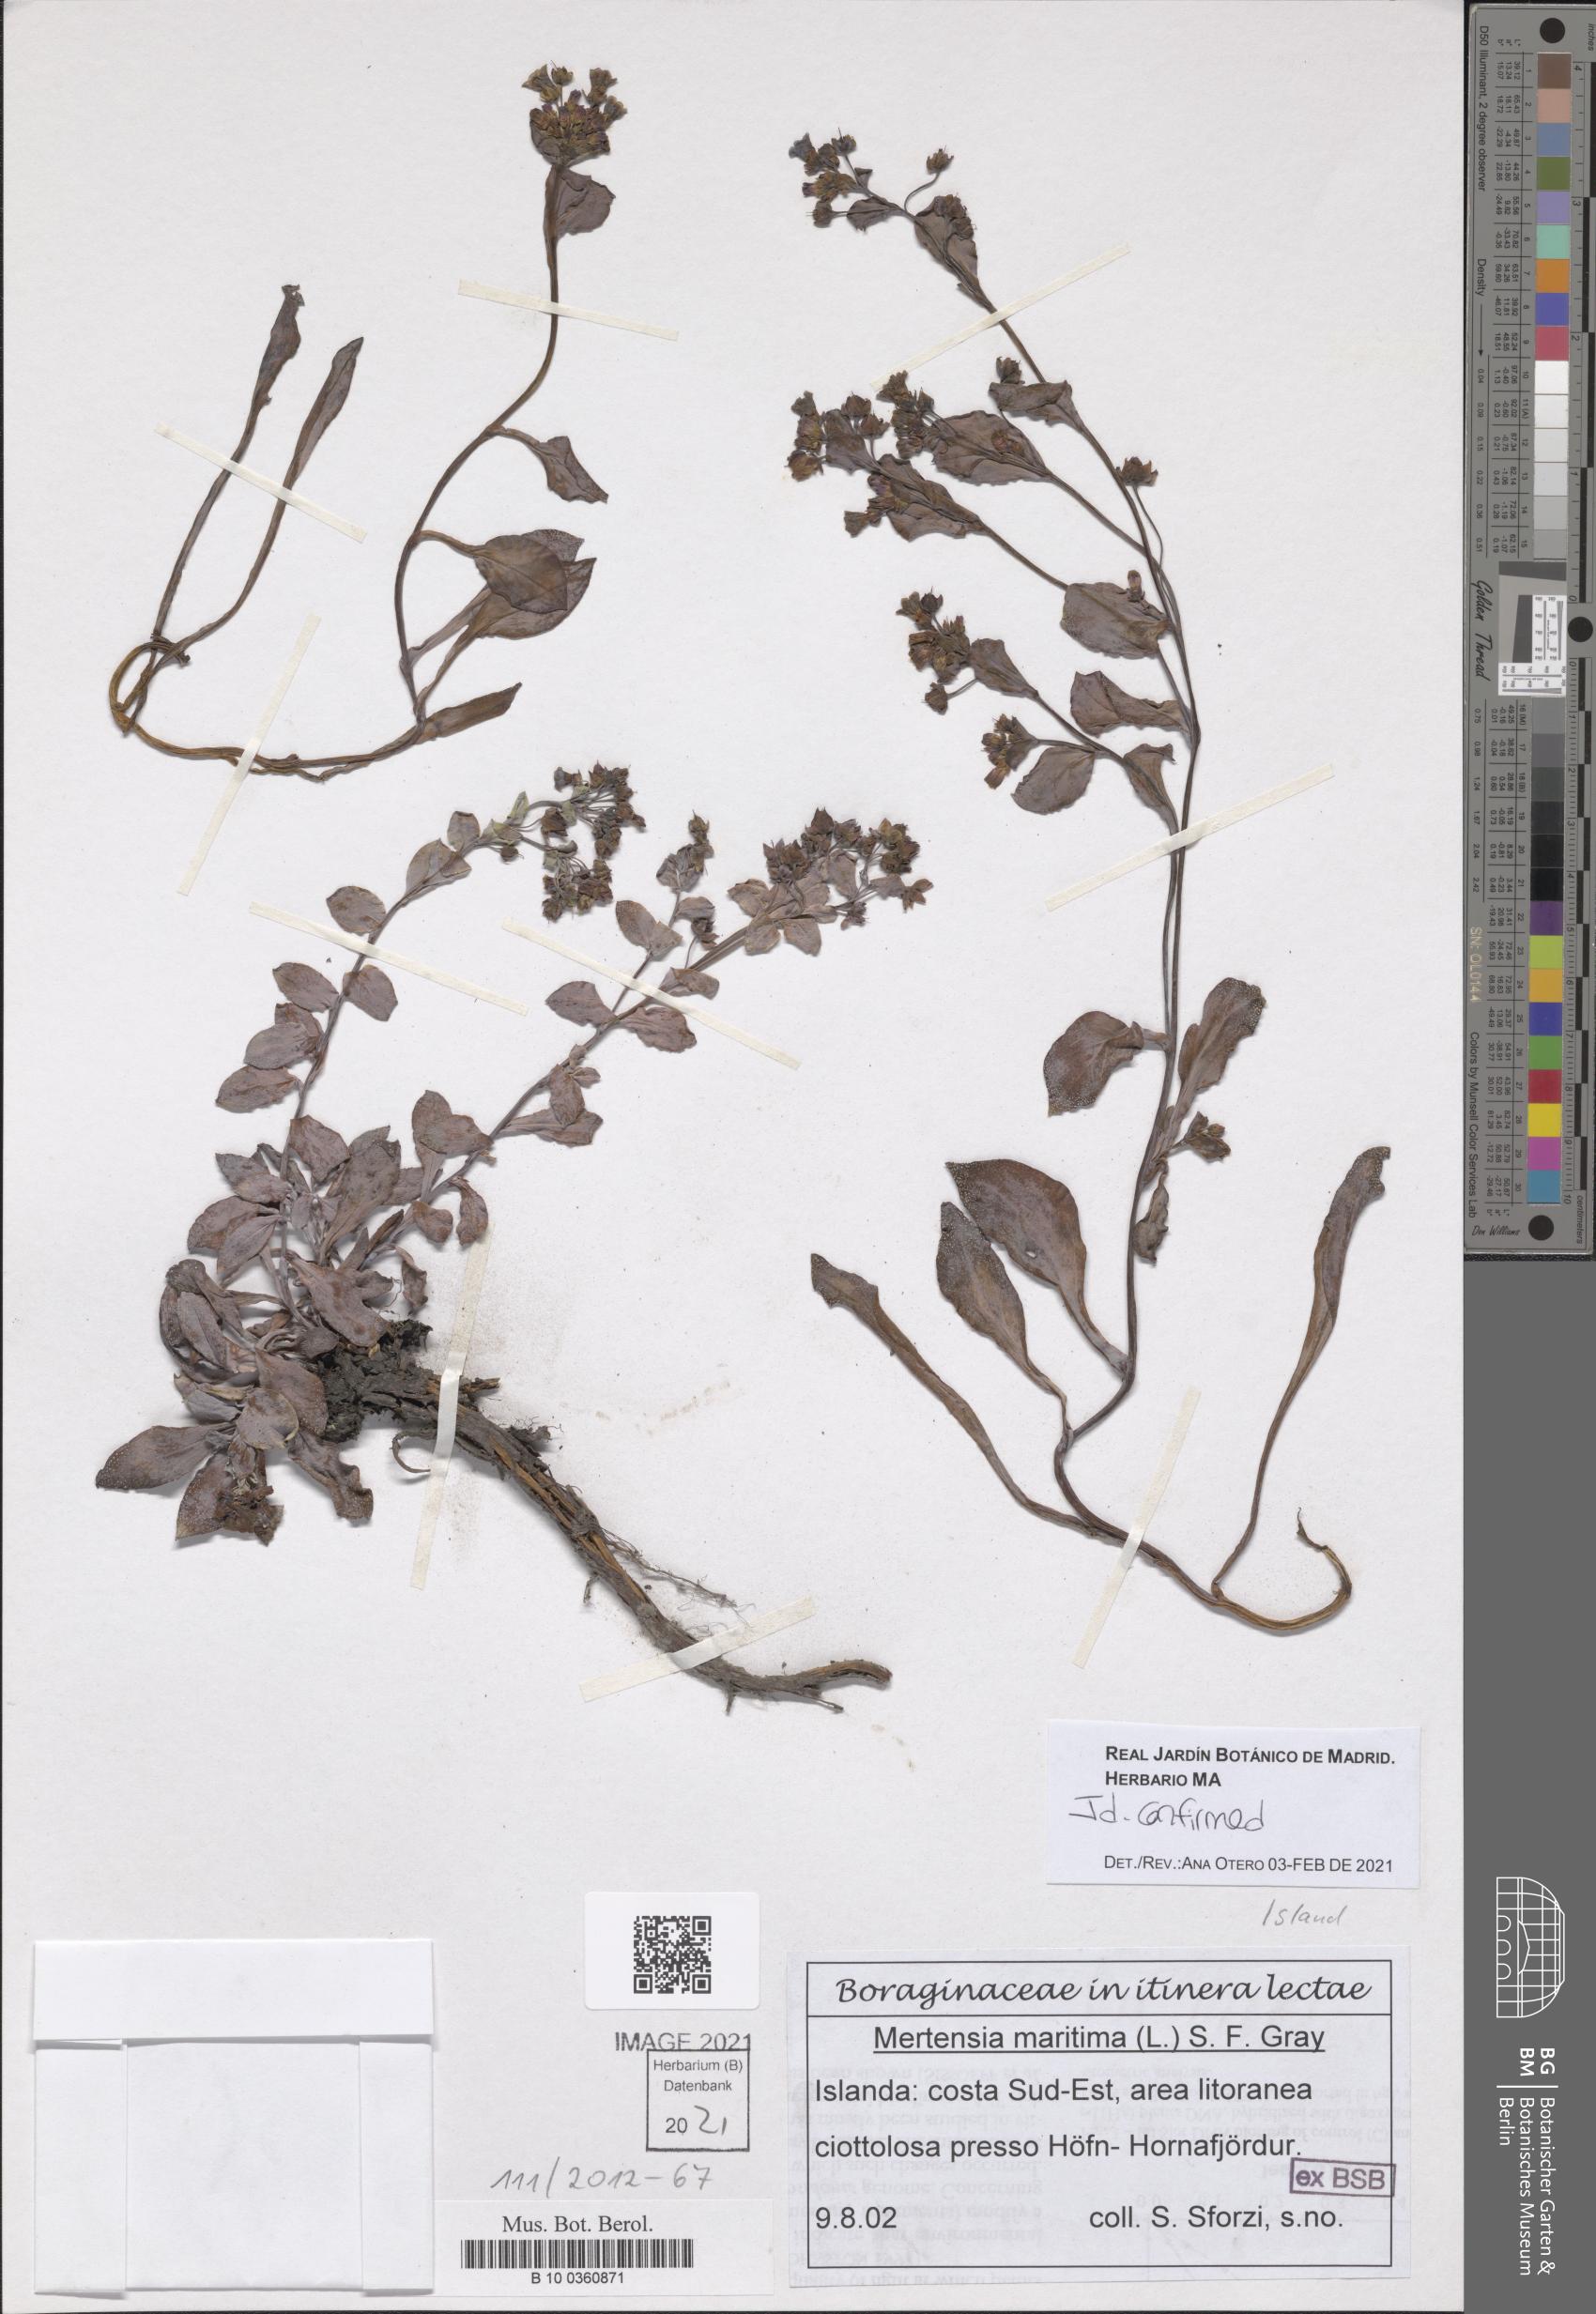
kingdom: Plantae
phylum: Tracheophyta
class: Magnoliopsida
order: Boraginales
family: Boraginaceae
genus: Mertensia
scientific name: Mertensia maritima
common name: Oysterplant
